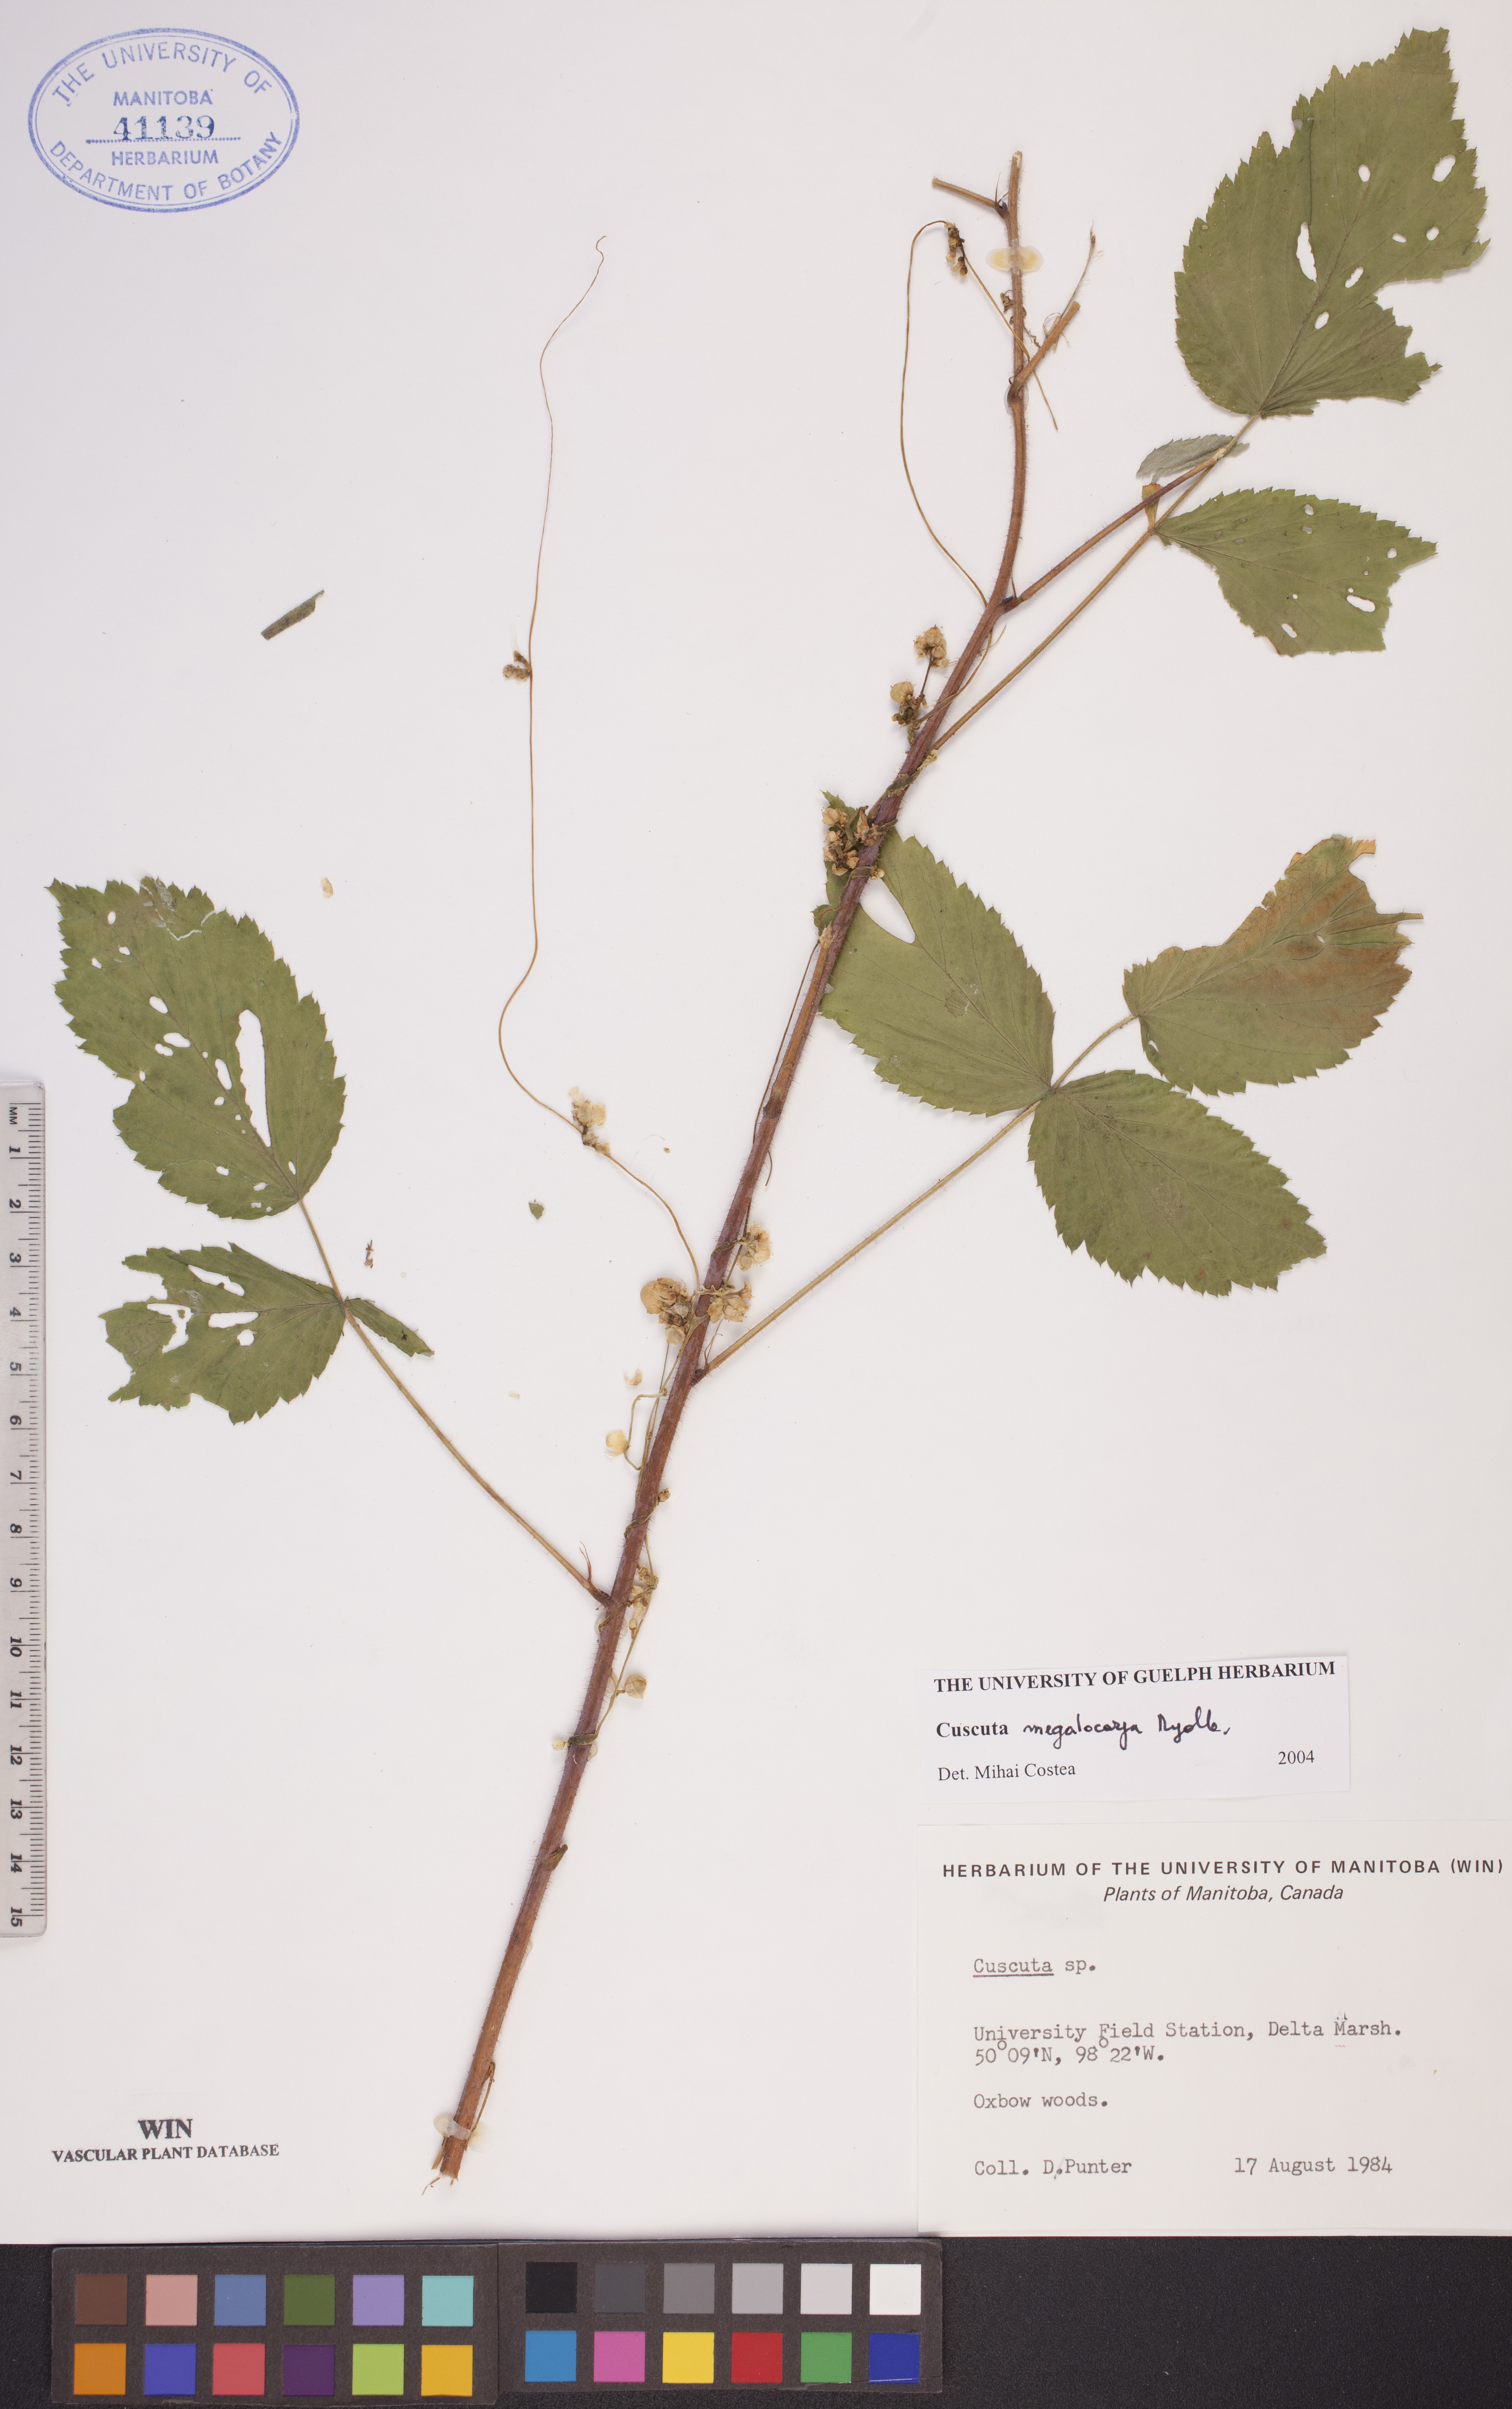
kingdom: Plantae
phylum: Tracheophyta
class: Magnoliopsida
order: Solanales
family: Convolvulaceae
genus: Cuscuta
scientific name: Cuscuta umbrosa
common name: Bigfruit dodder
